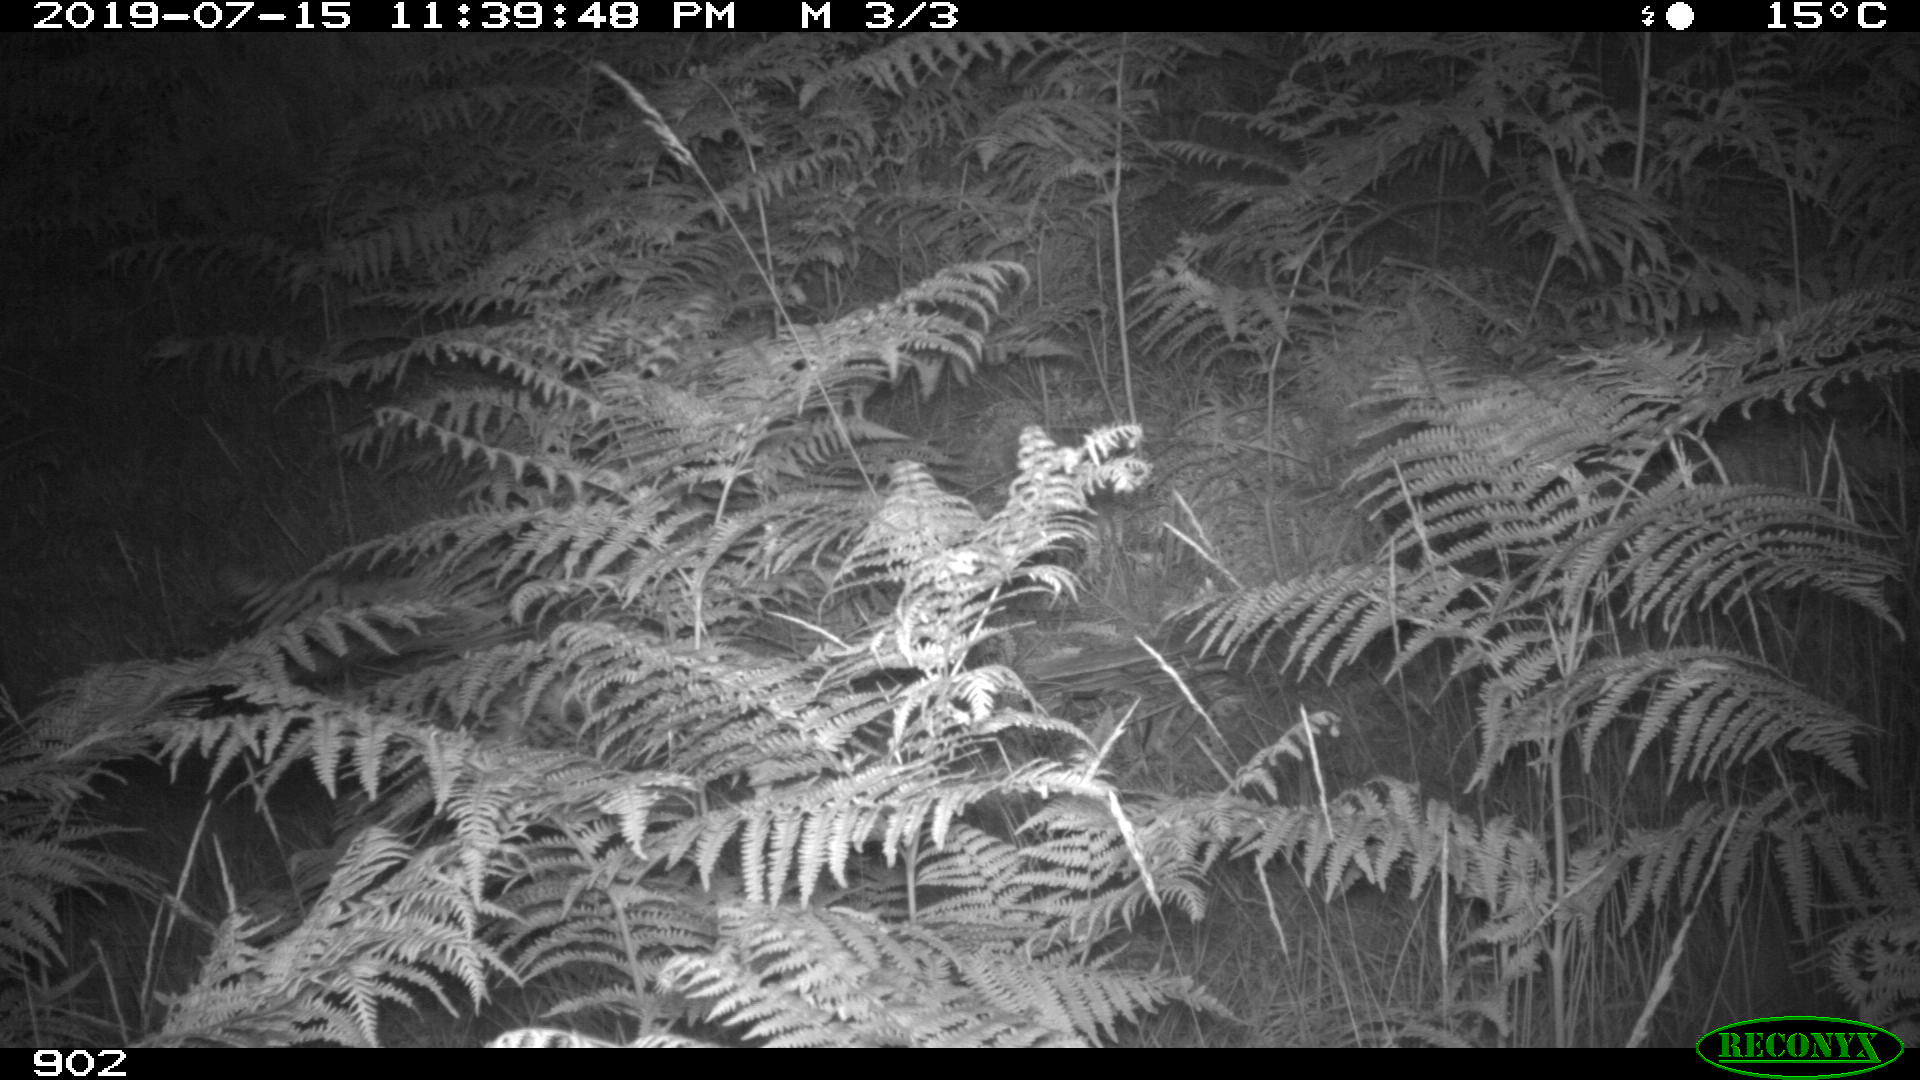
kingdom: Animalia
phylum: Chordata
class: Mammalia
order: Artiodactyla
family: Suidae
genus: Sus
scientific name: Sus scrofa
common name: Wild boar
